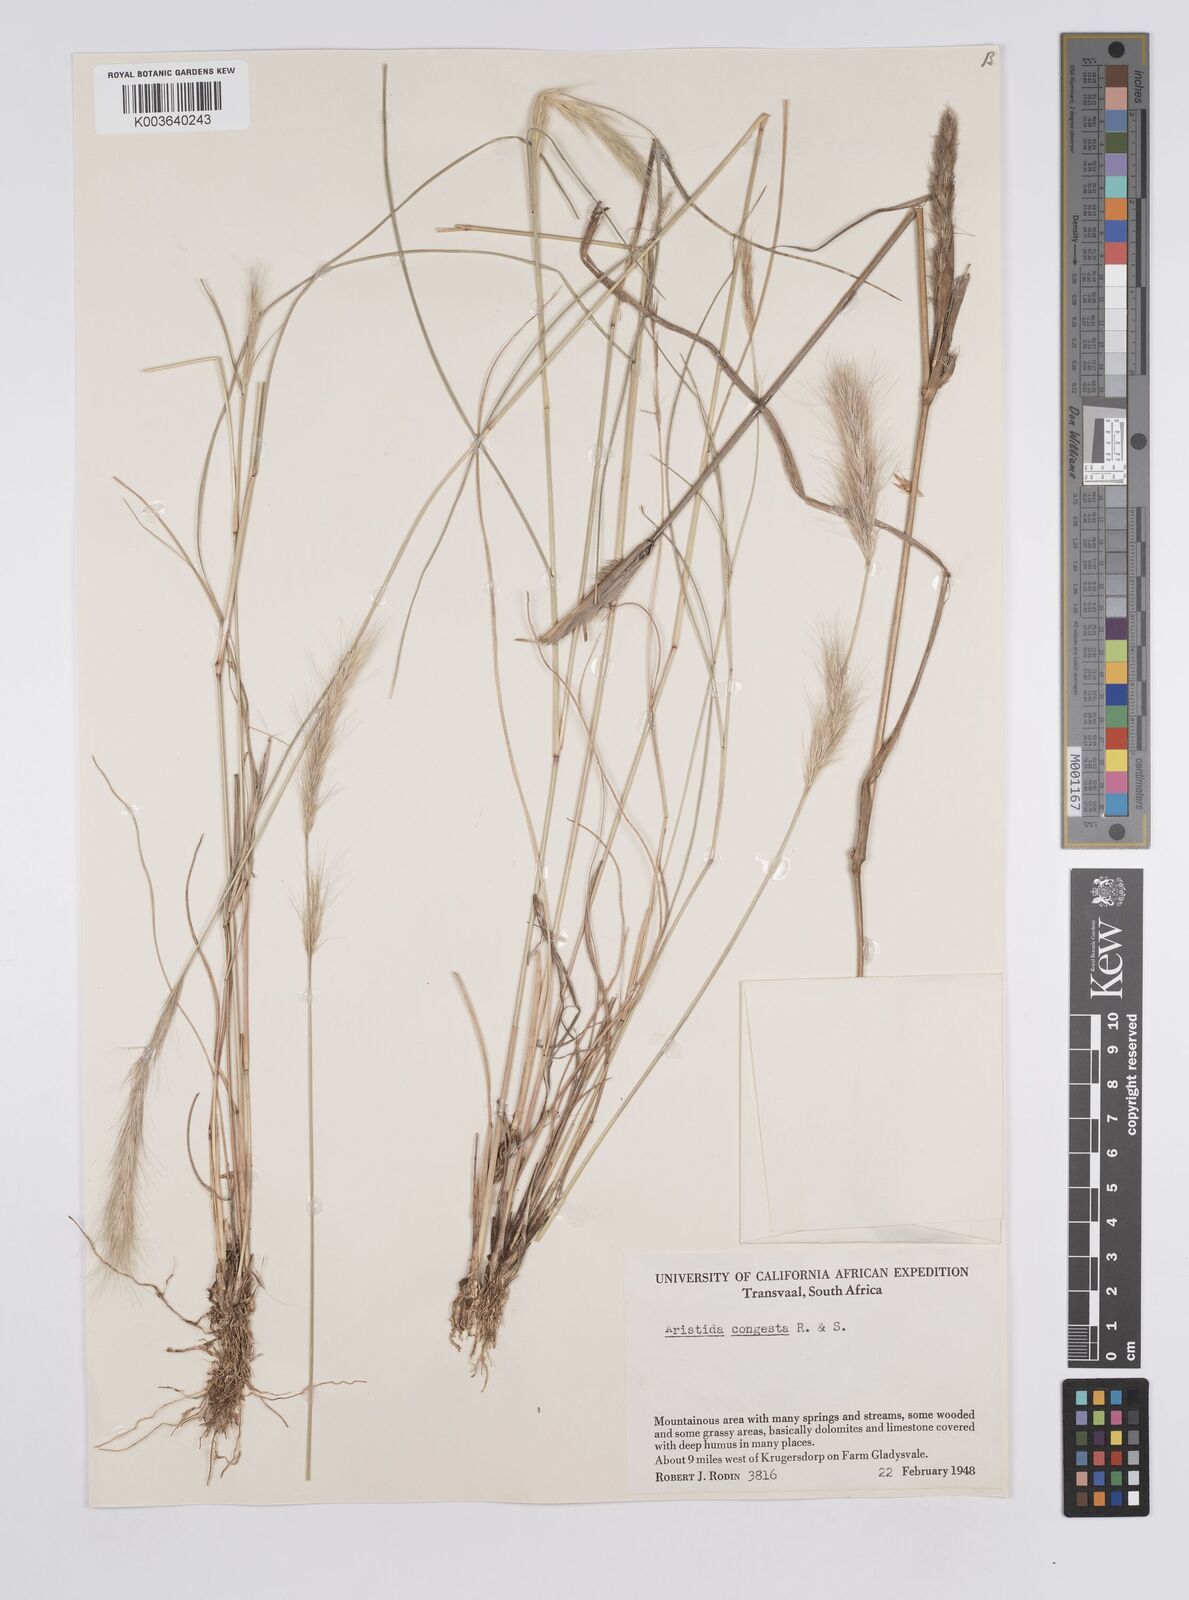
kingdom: Plantae
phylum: Tracheophyta
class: Liliopsida
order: Poales
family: Poaceae
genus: Aristida
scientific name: Aristida congesta
